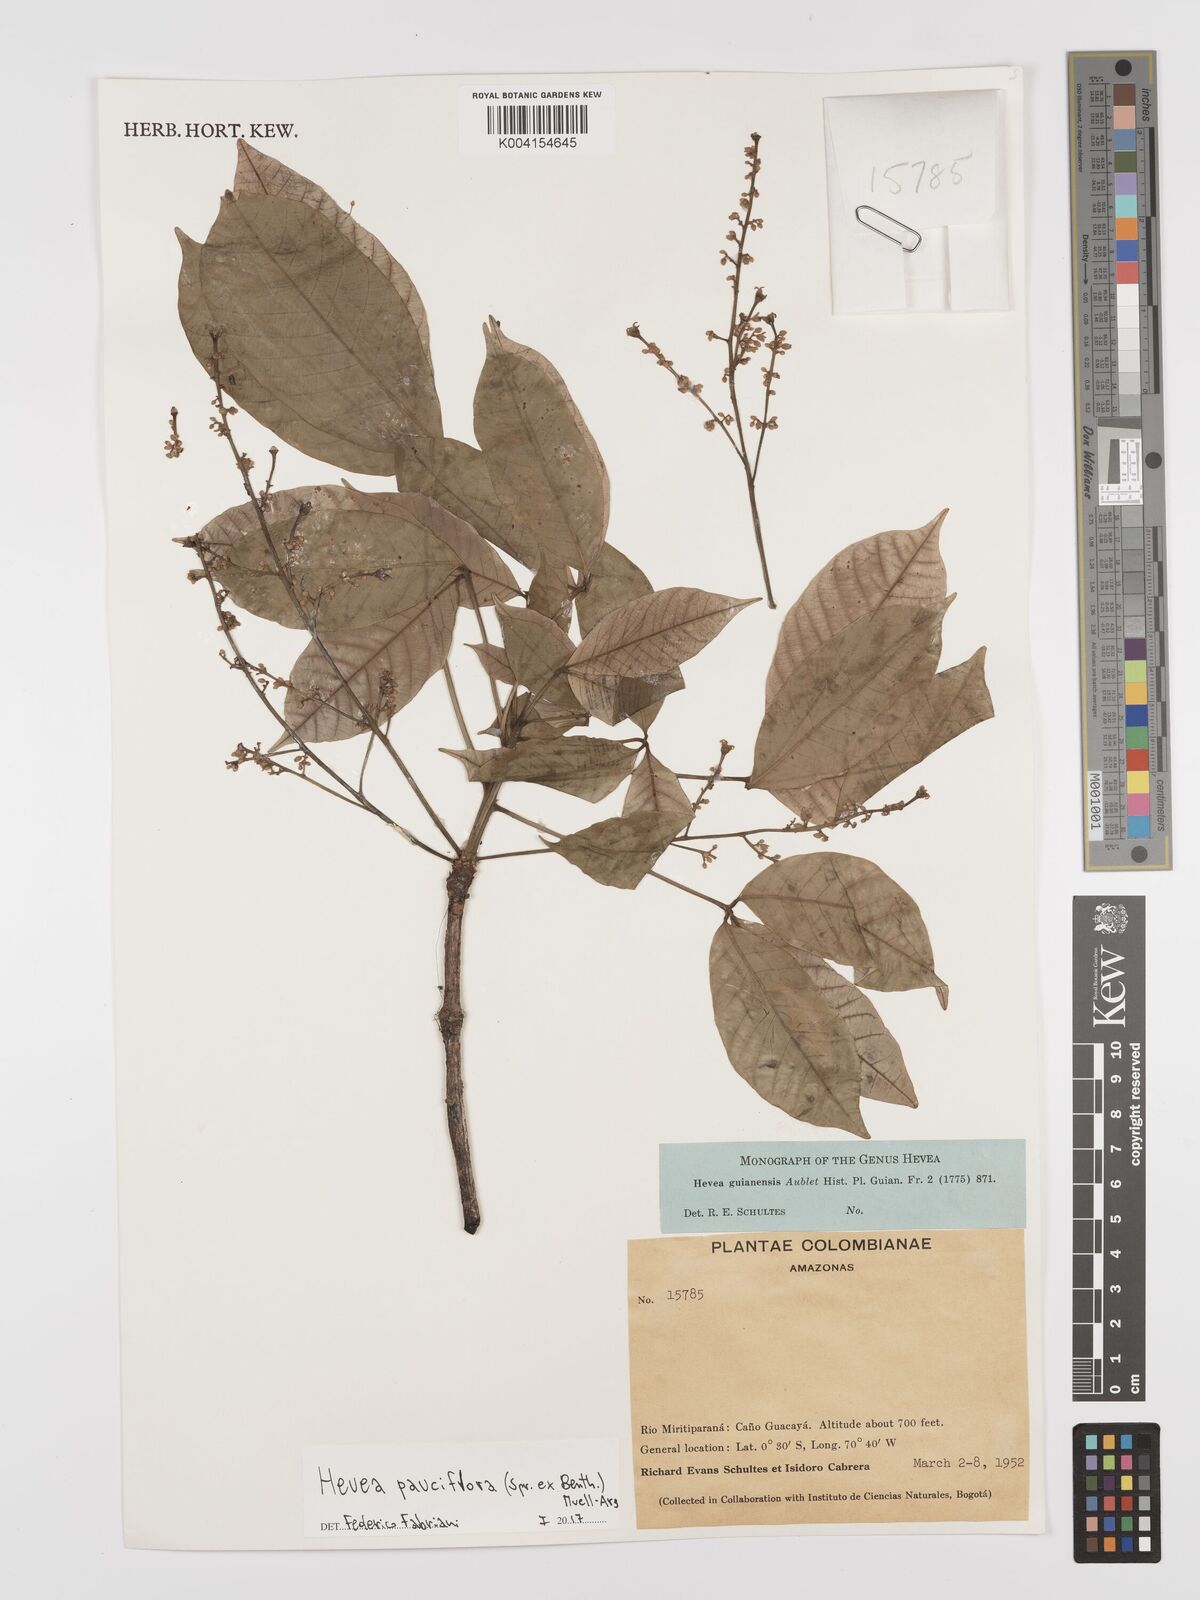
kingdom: Plantae
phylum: Tracheophyta
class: Magnoliopsida
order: Malpighiales
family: Euphorbiaceae
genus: Hevea
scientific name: Hevea pauciflora
